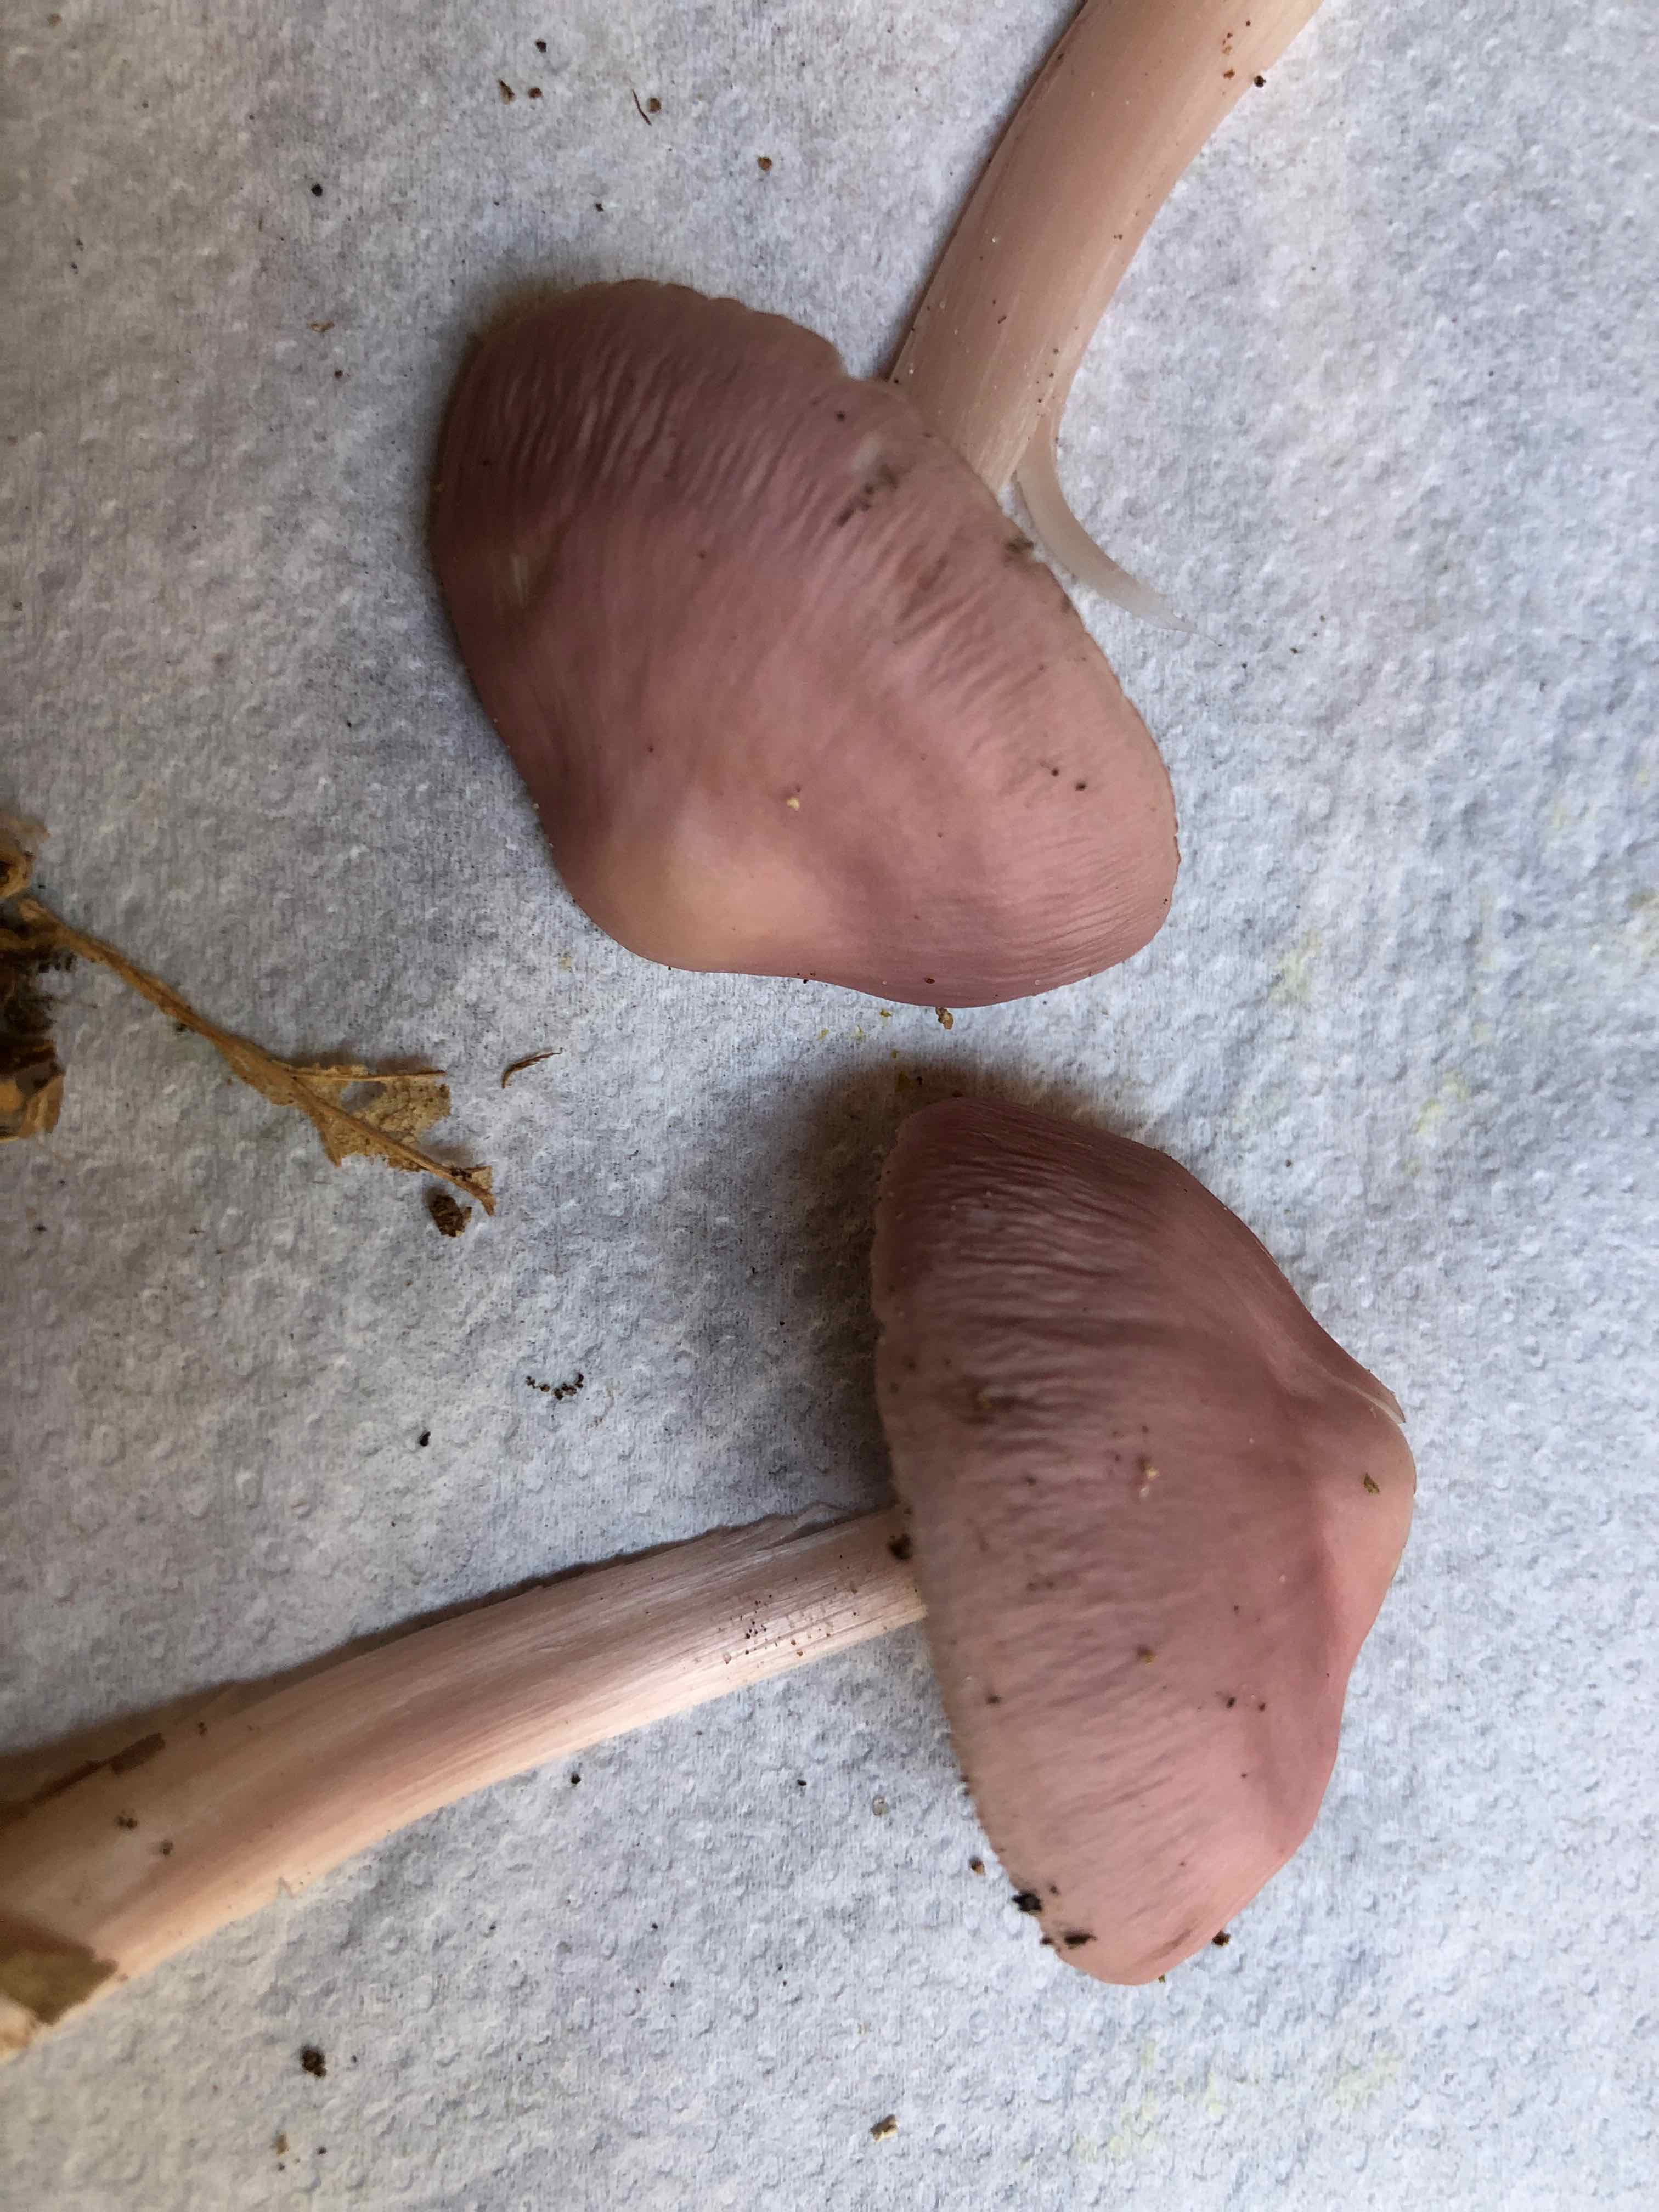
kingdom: Fungi
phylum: Basidiomycota
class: Agaricomycetes
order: Agaricales
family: Mycenaceae
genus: Mycena
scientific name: Mycena rosea
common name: rosa huesvamp
